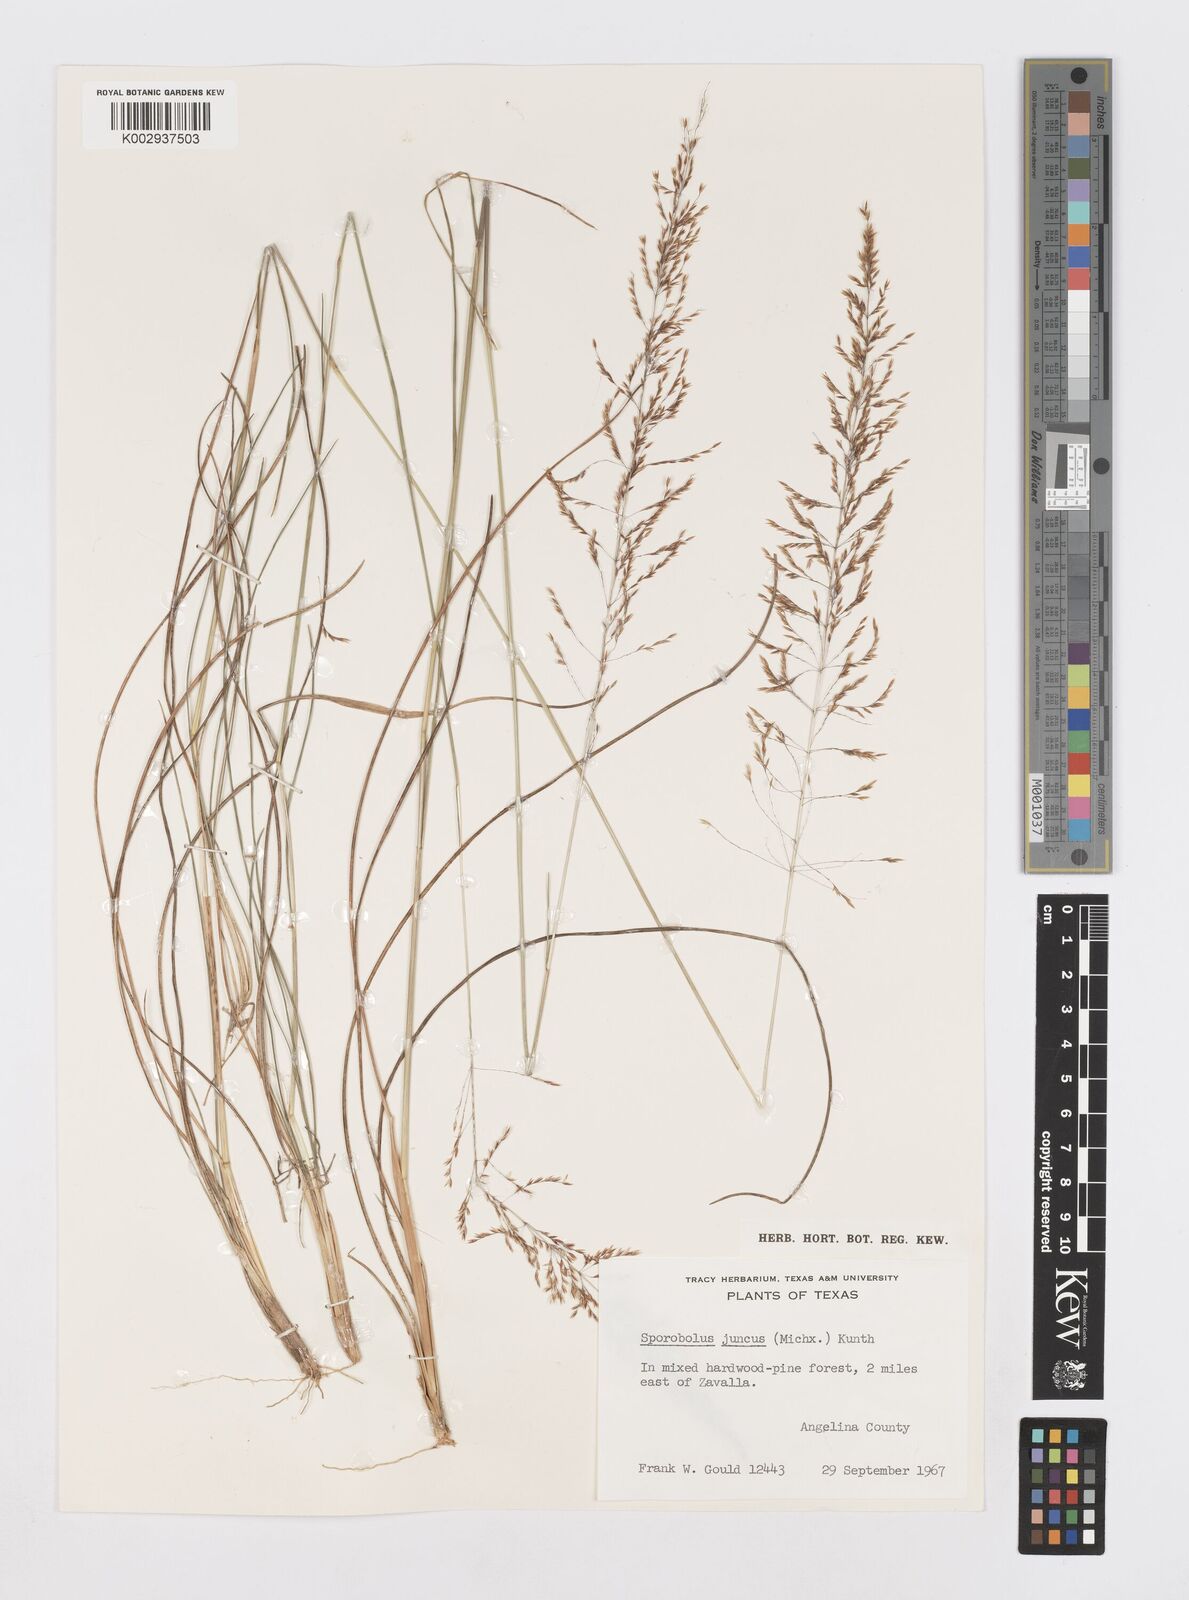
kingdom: Plantae
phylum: Tracheophyta
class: Liliopsida
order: Poales
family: Poaceae
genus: Sporobolus
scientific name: Sporobolus junceus
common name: Lizard grass
